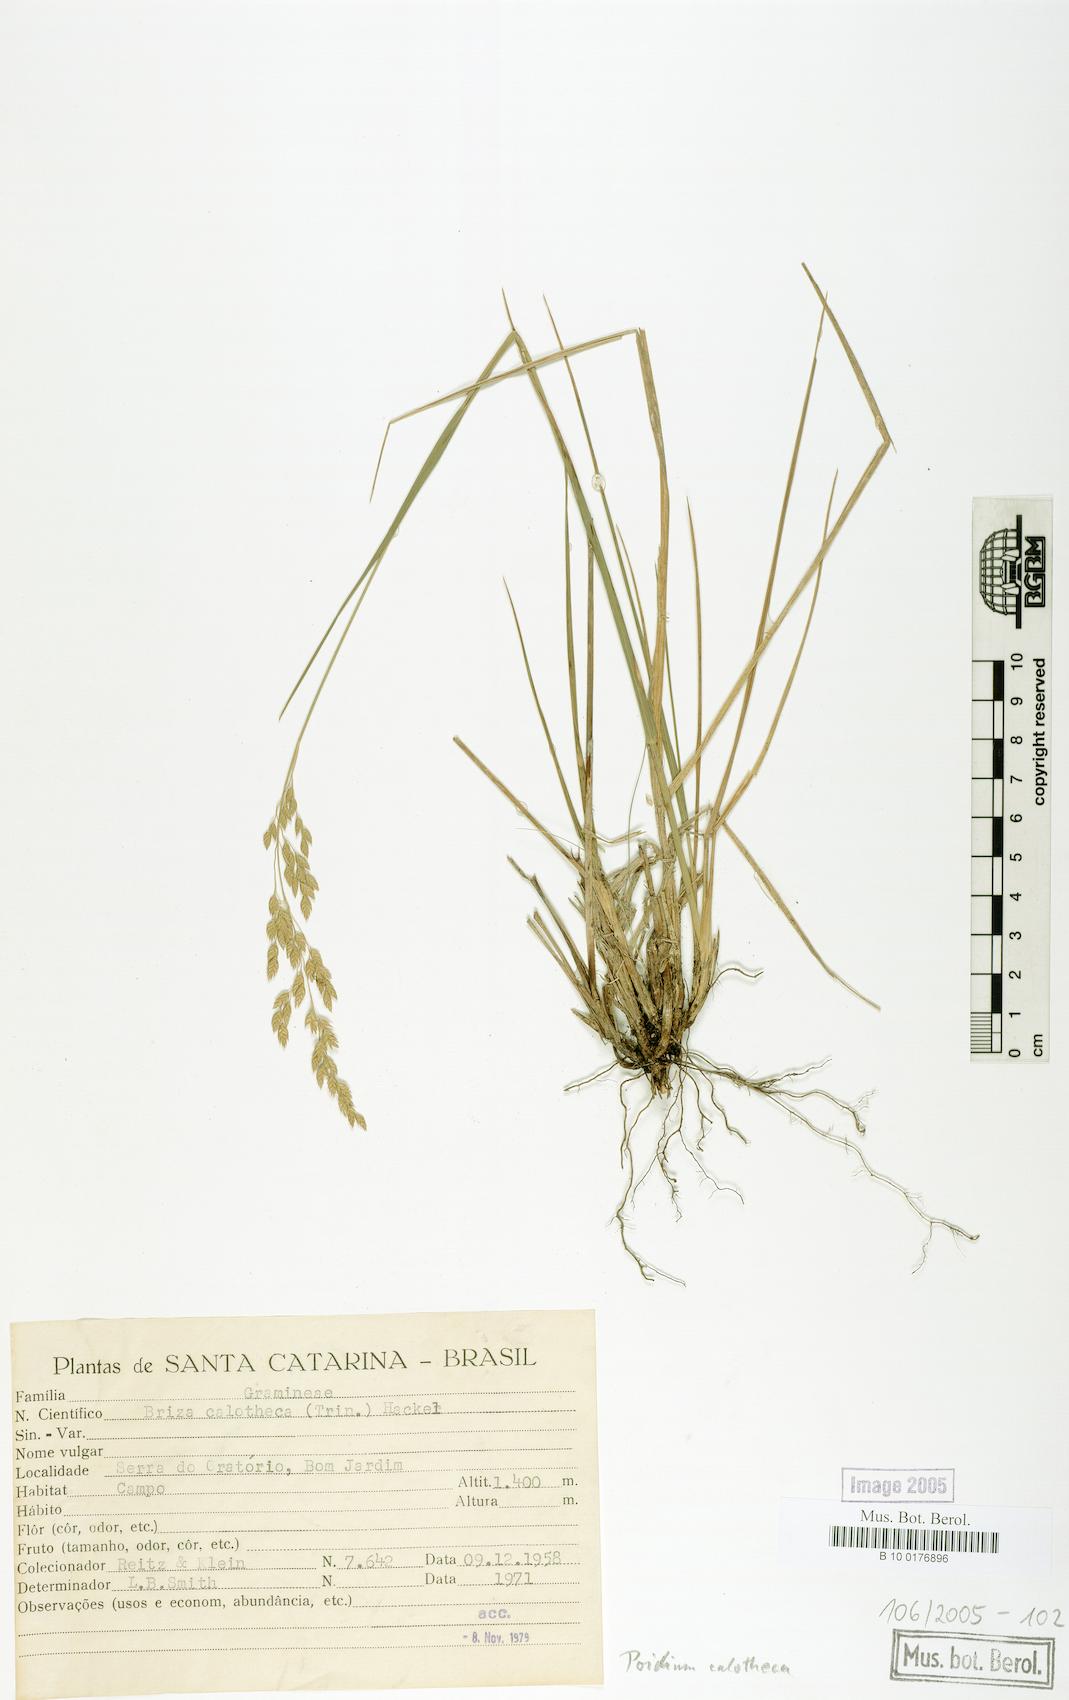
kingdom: Plantae
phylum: Tracheophyta
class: Liliopsida
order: Poales
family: Poaceae
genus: Poidium
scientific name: Poidium calotheca
